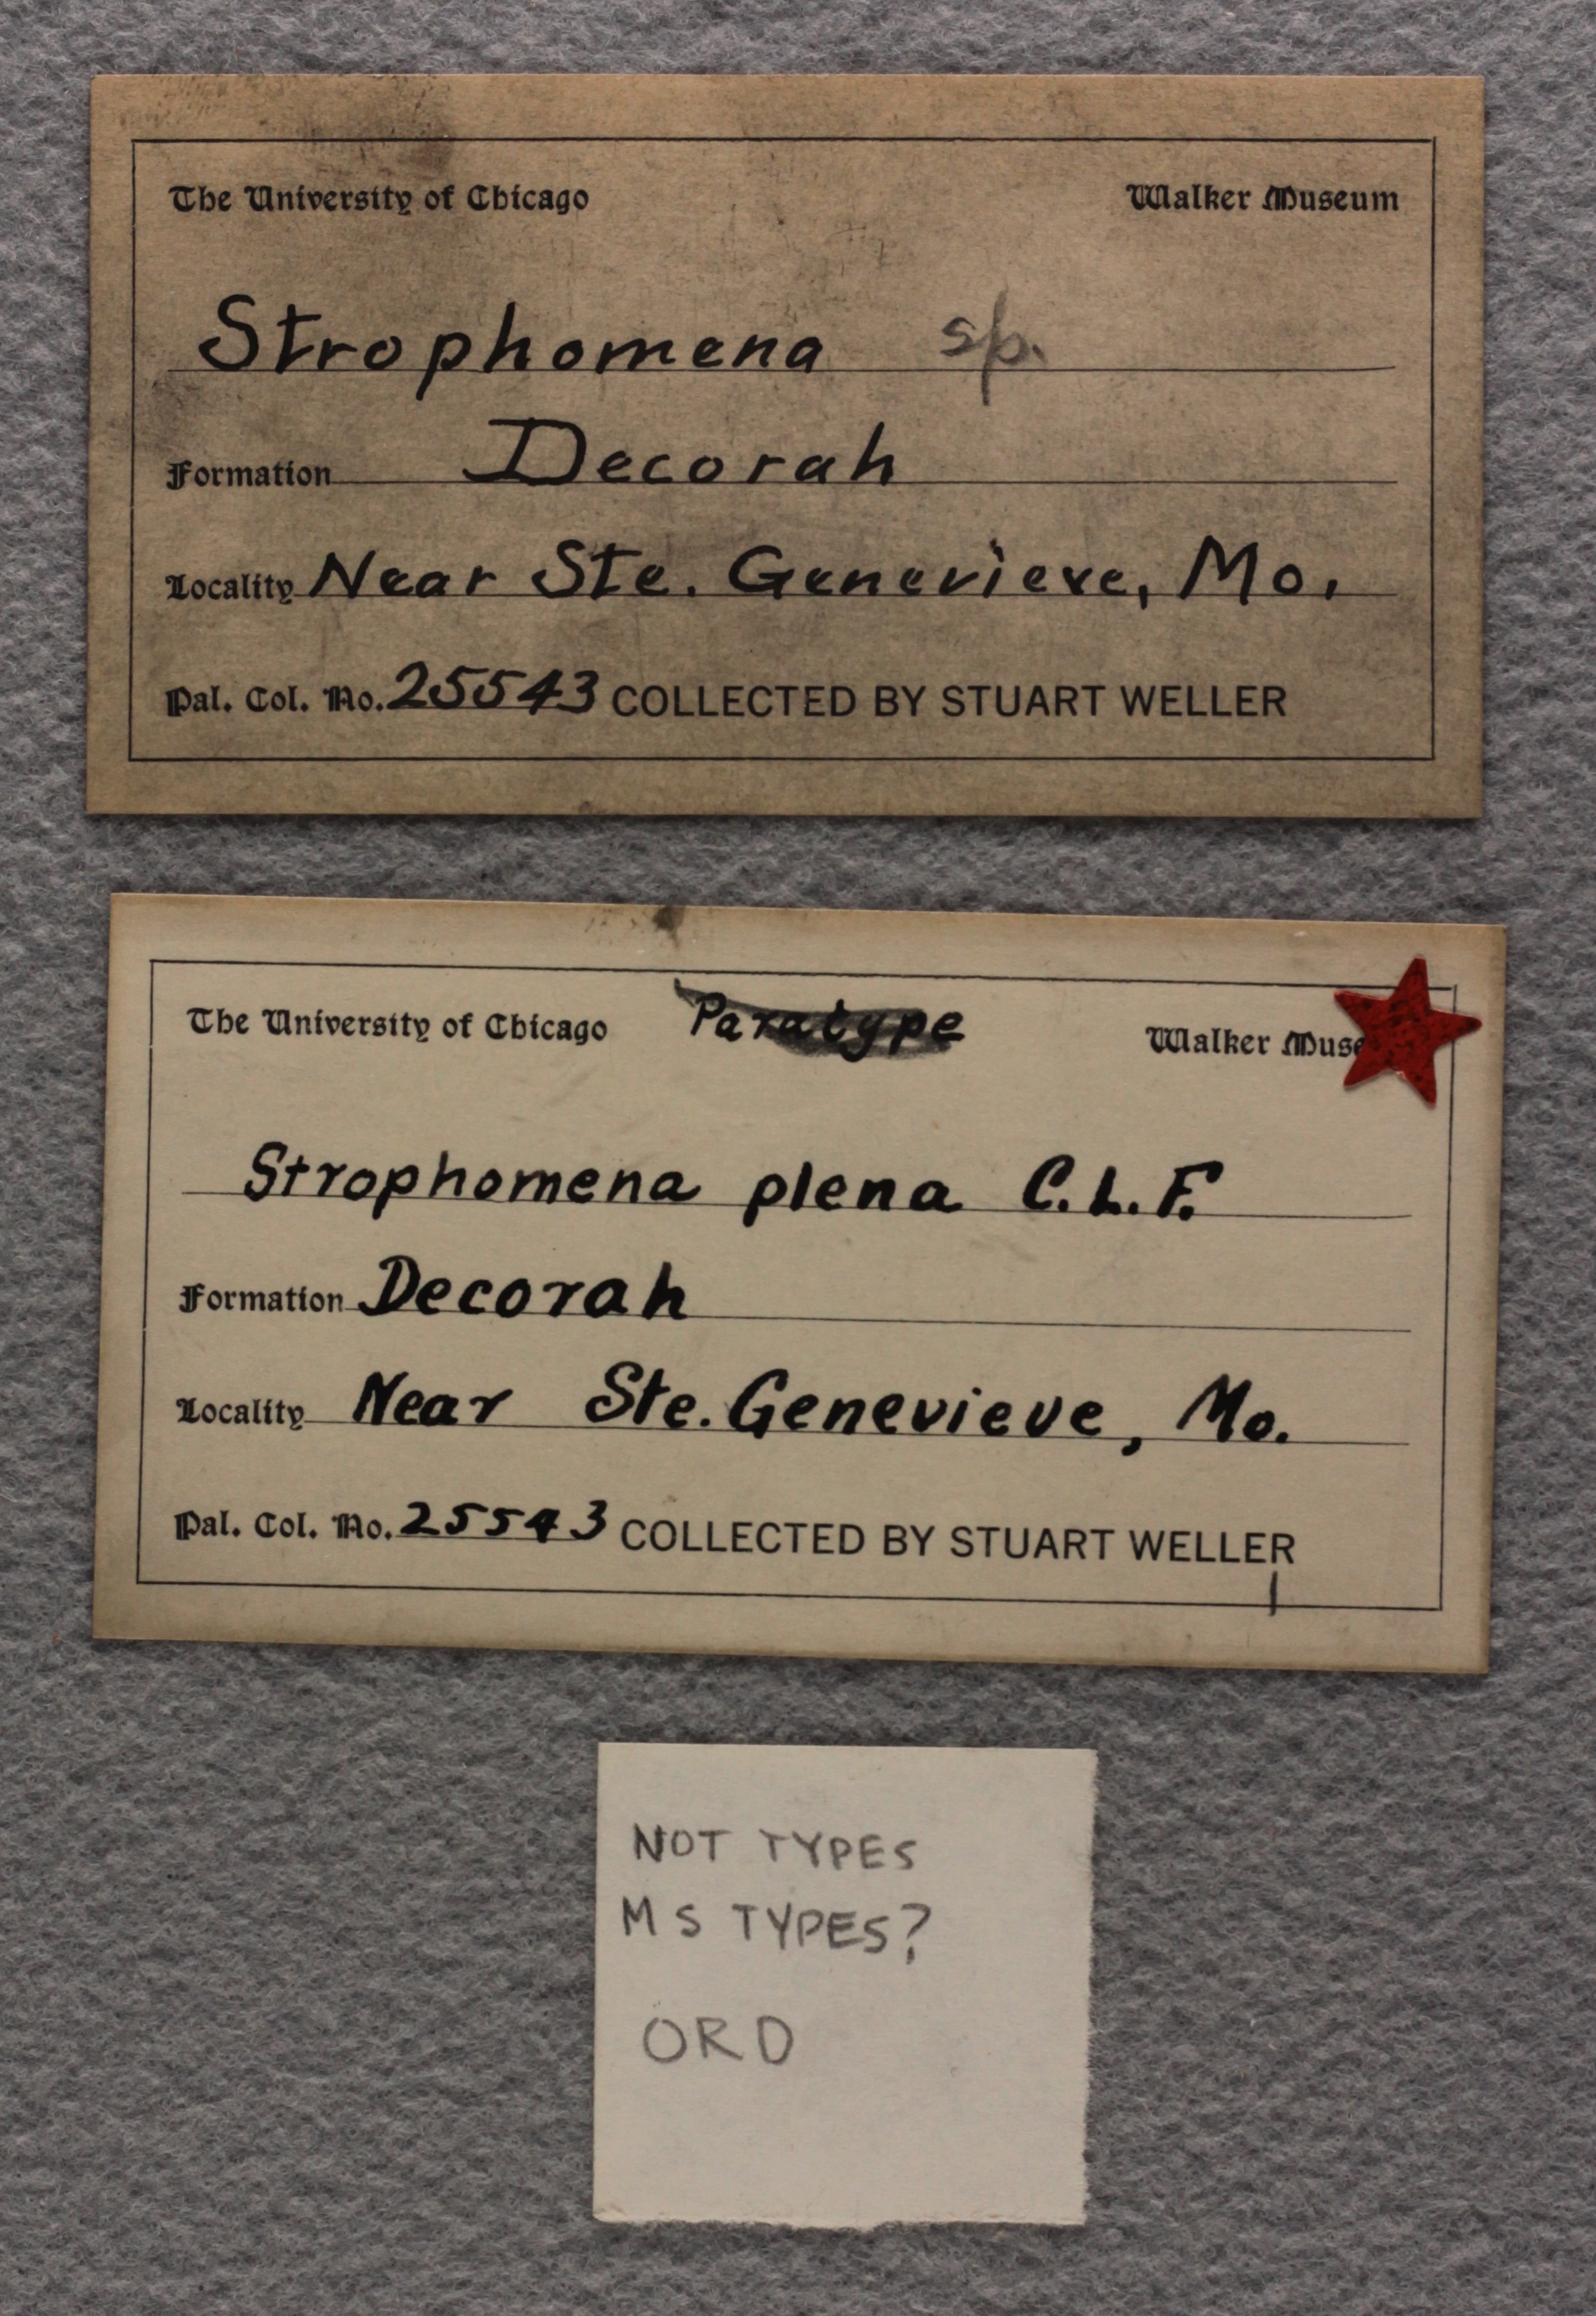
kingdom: Animalia
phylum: Brachiopoda
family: Strophomenidae
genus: Strophomena
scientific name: Strophomena
